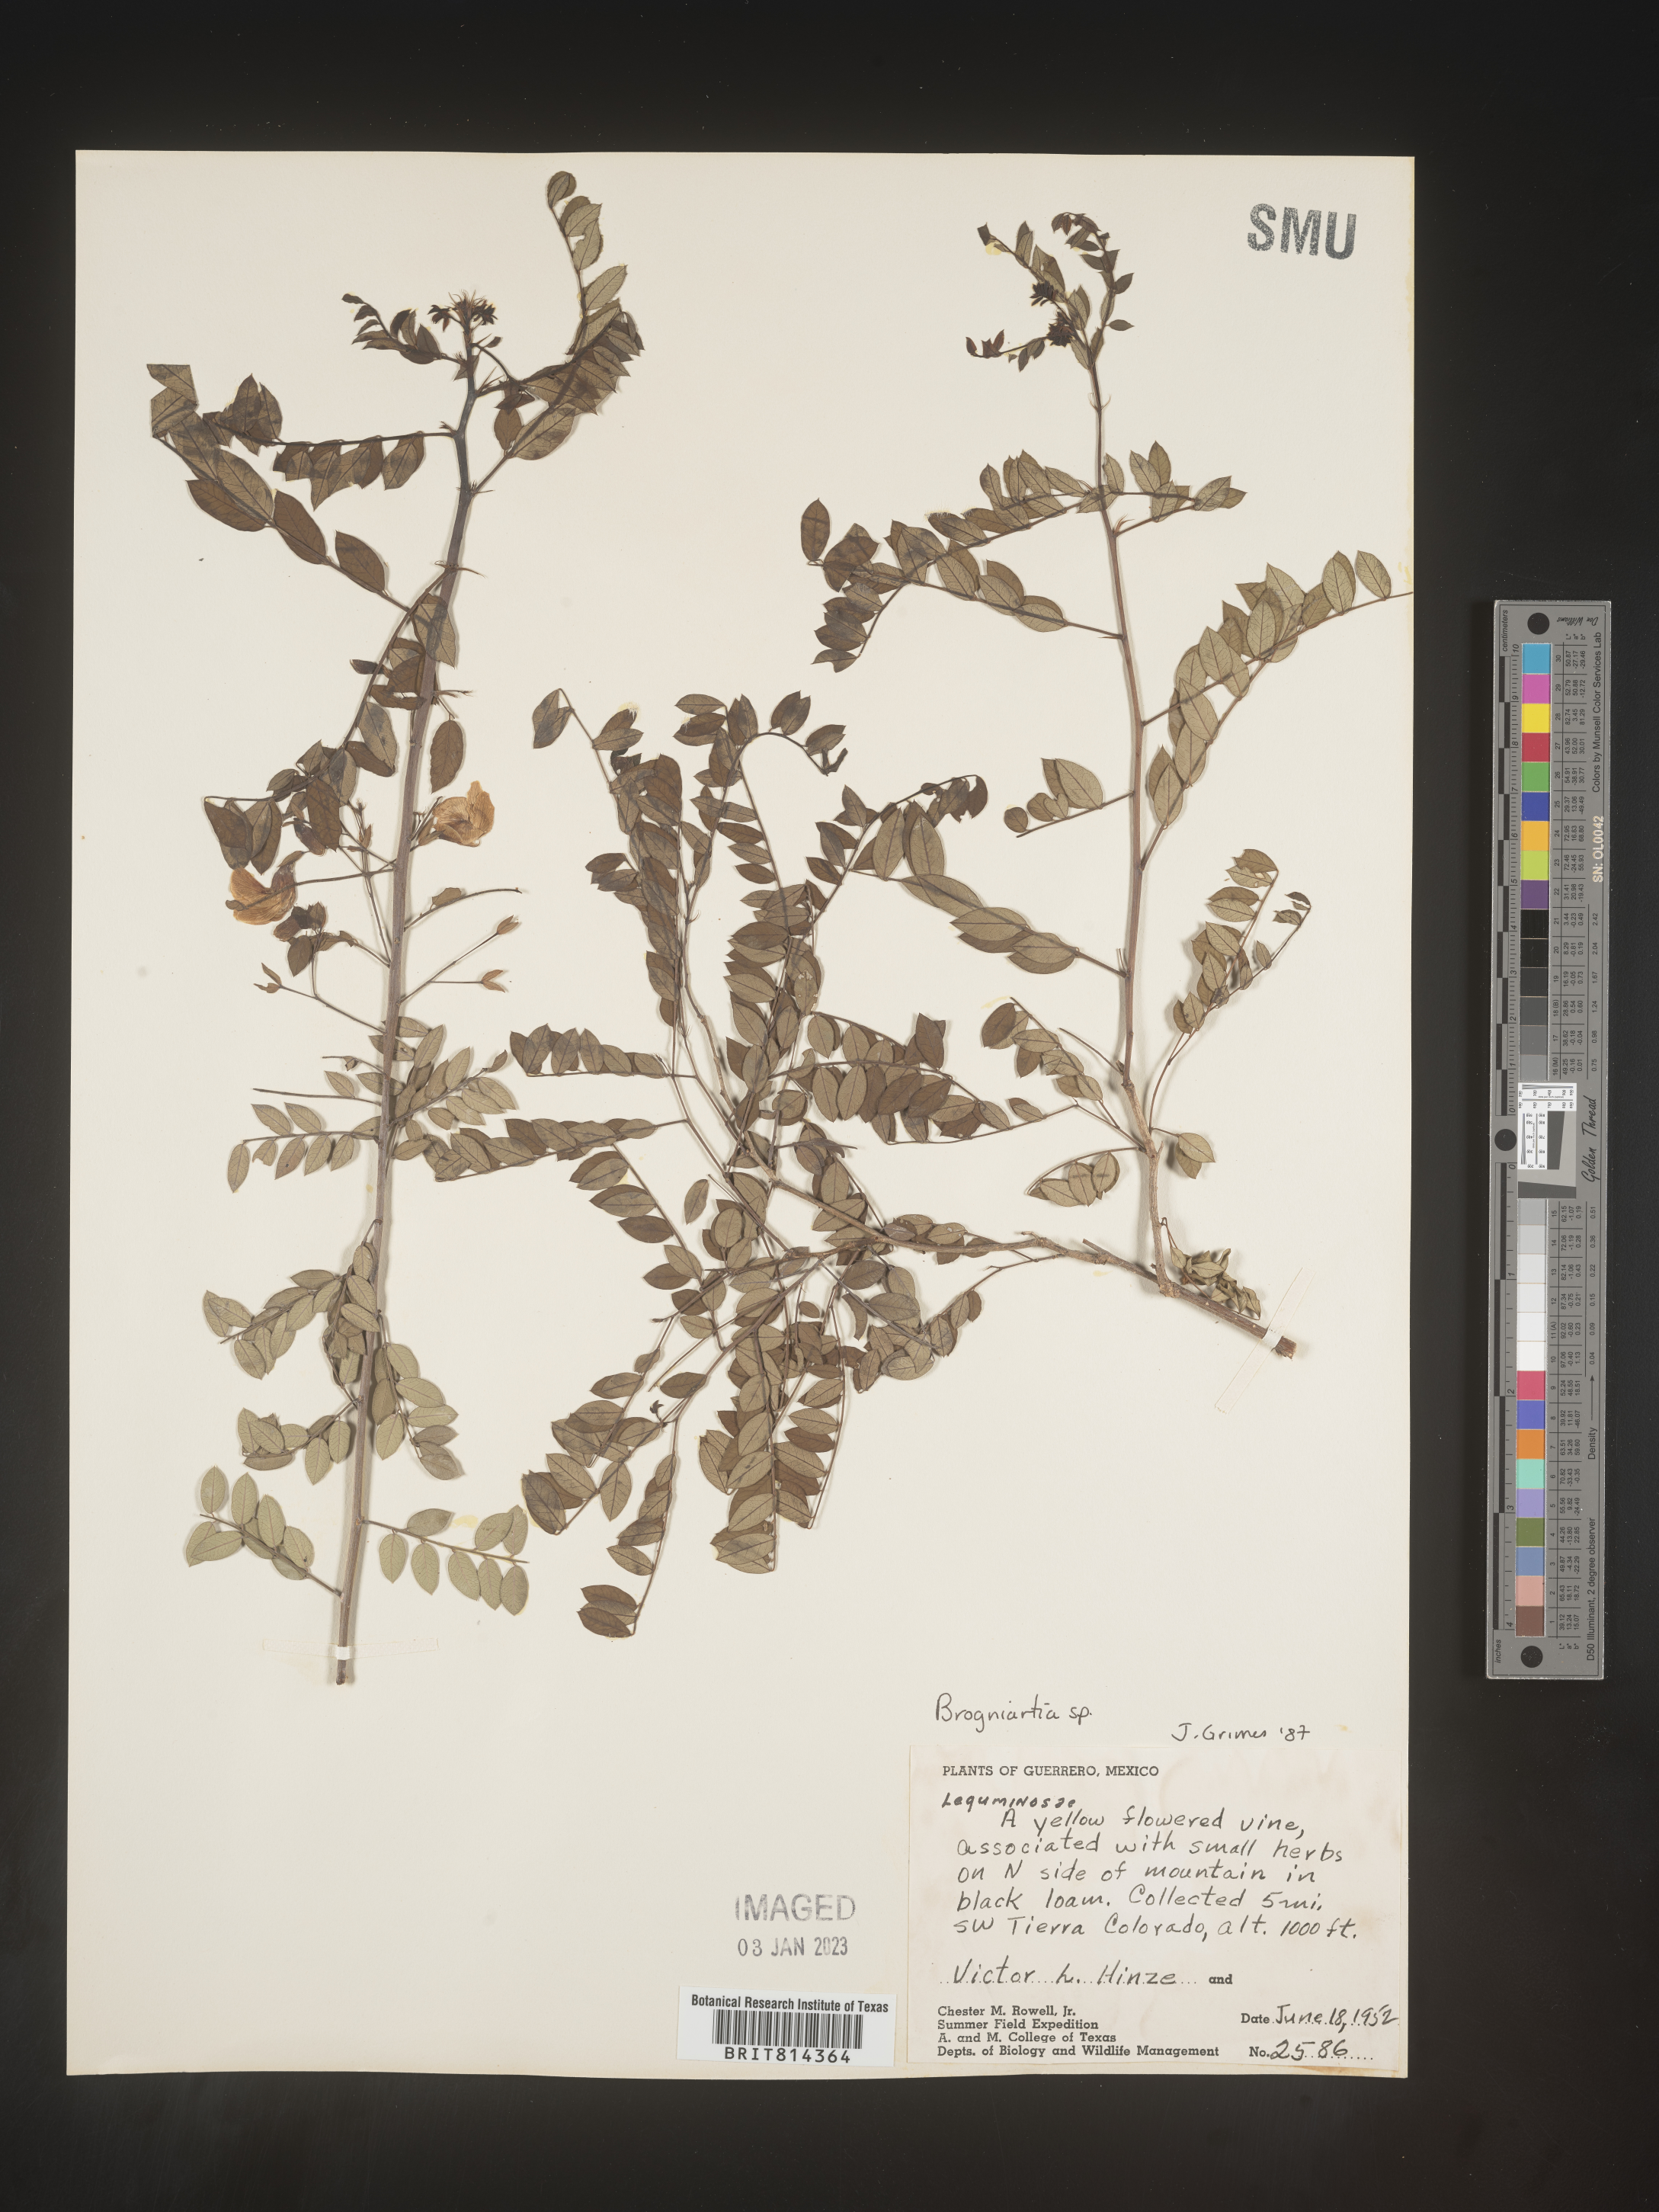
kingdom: Plantae
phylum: Tracheophyta
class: Magnoliopsida
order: Fabales
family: Fabaceae
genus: Brongniartia
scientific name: Brongniartia
